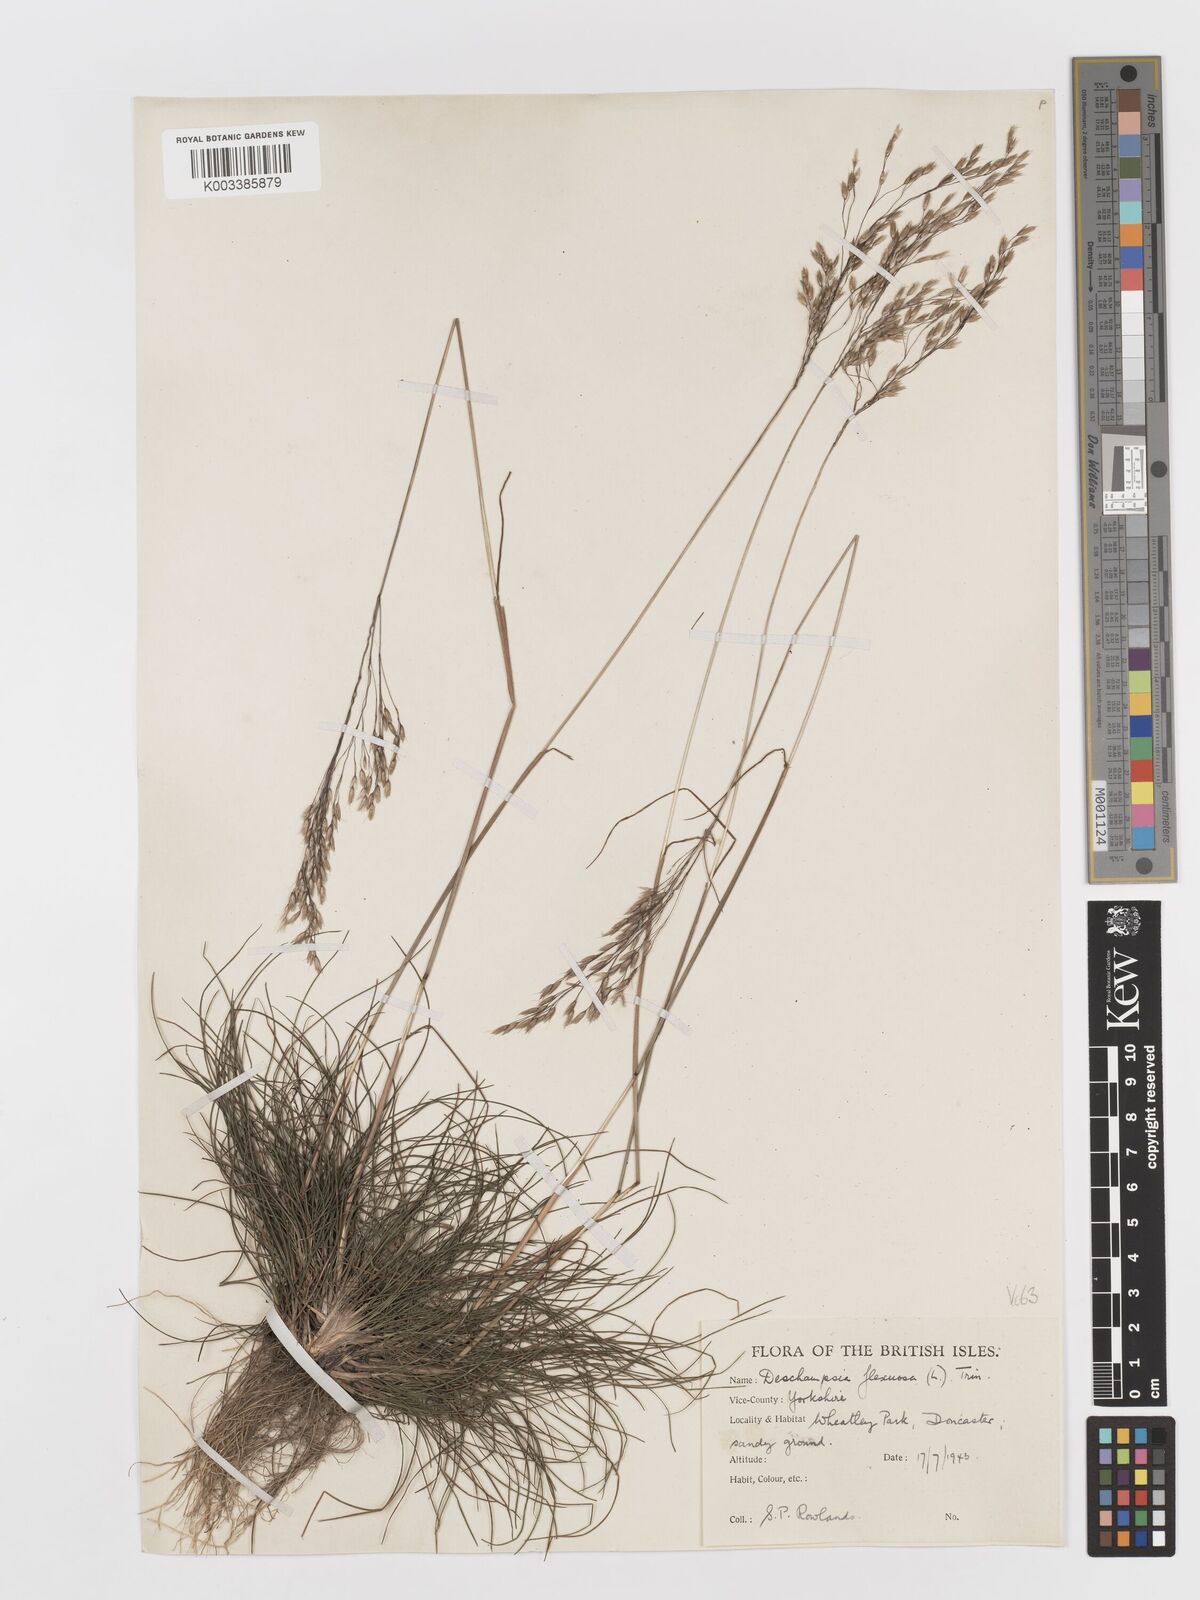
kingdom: Plantae
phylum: Tracheophyta
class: Liliopsida
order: Poales
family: Poaceae
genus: Avenella
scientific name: Avenella flexuosa
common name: Wavy hairgrass
